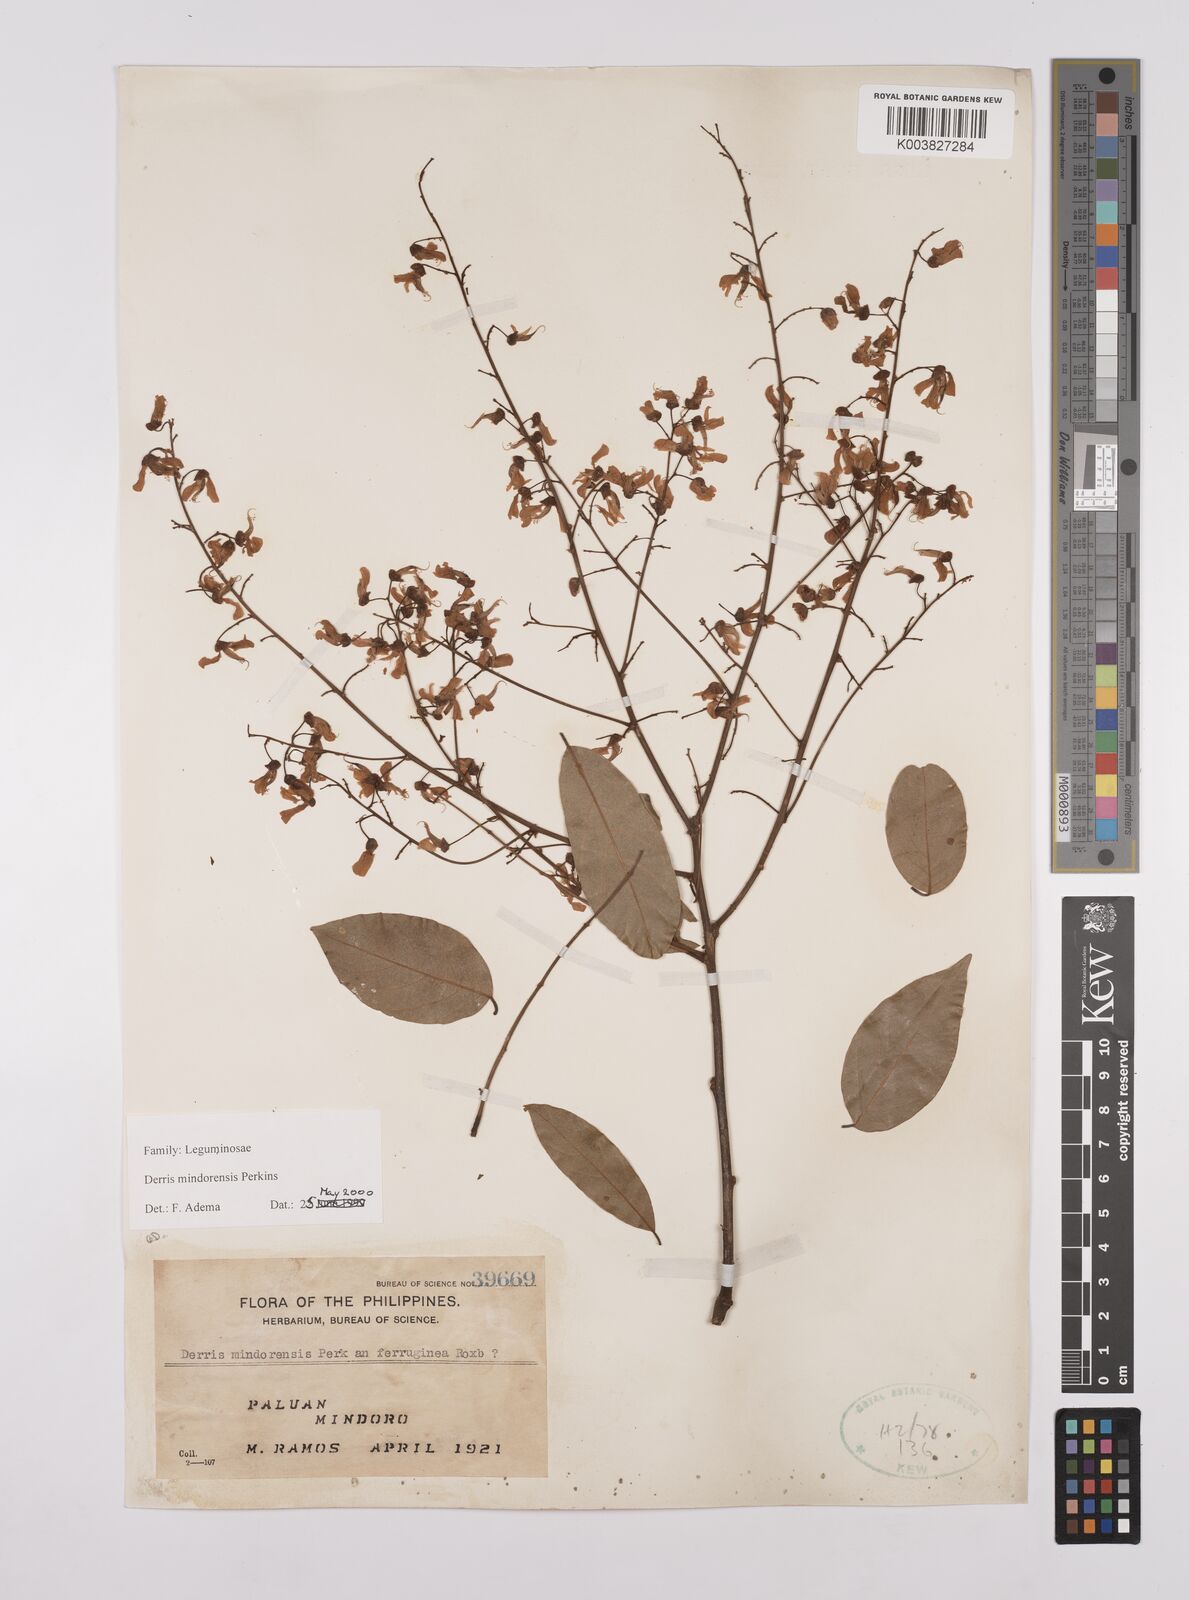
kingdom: Plantae
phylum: Tracheophyta
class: Magnoliopsida
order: Fabales
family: Fabaceae
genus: Derris
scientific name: Derris pubipetala
